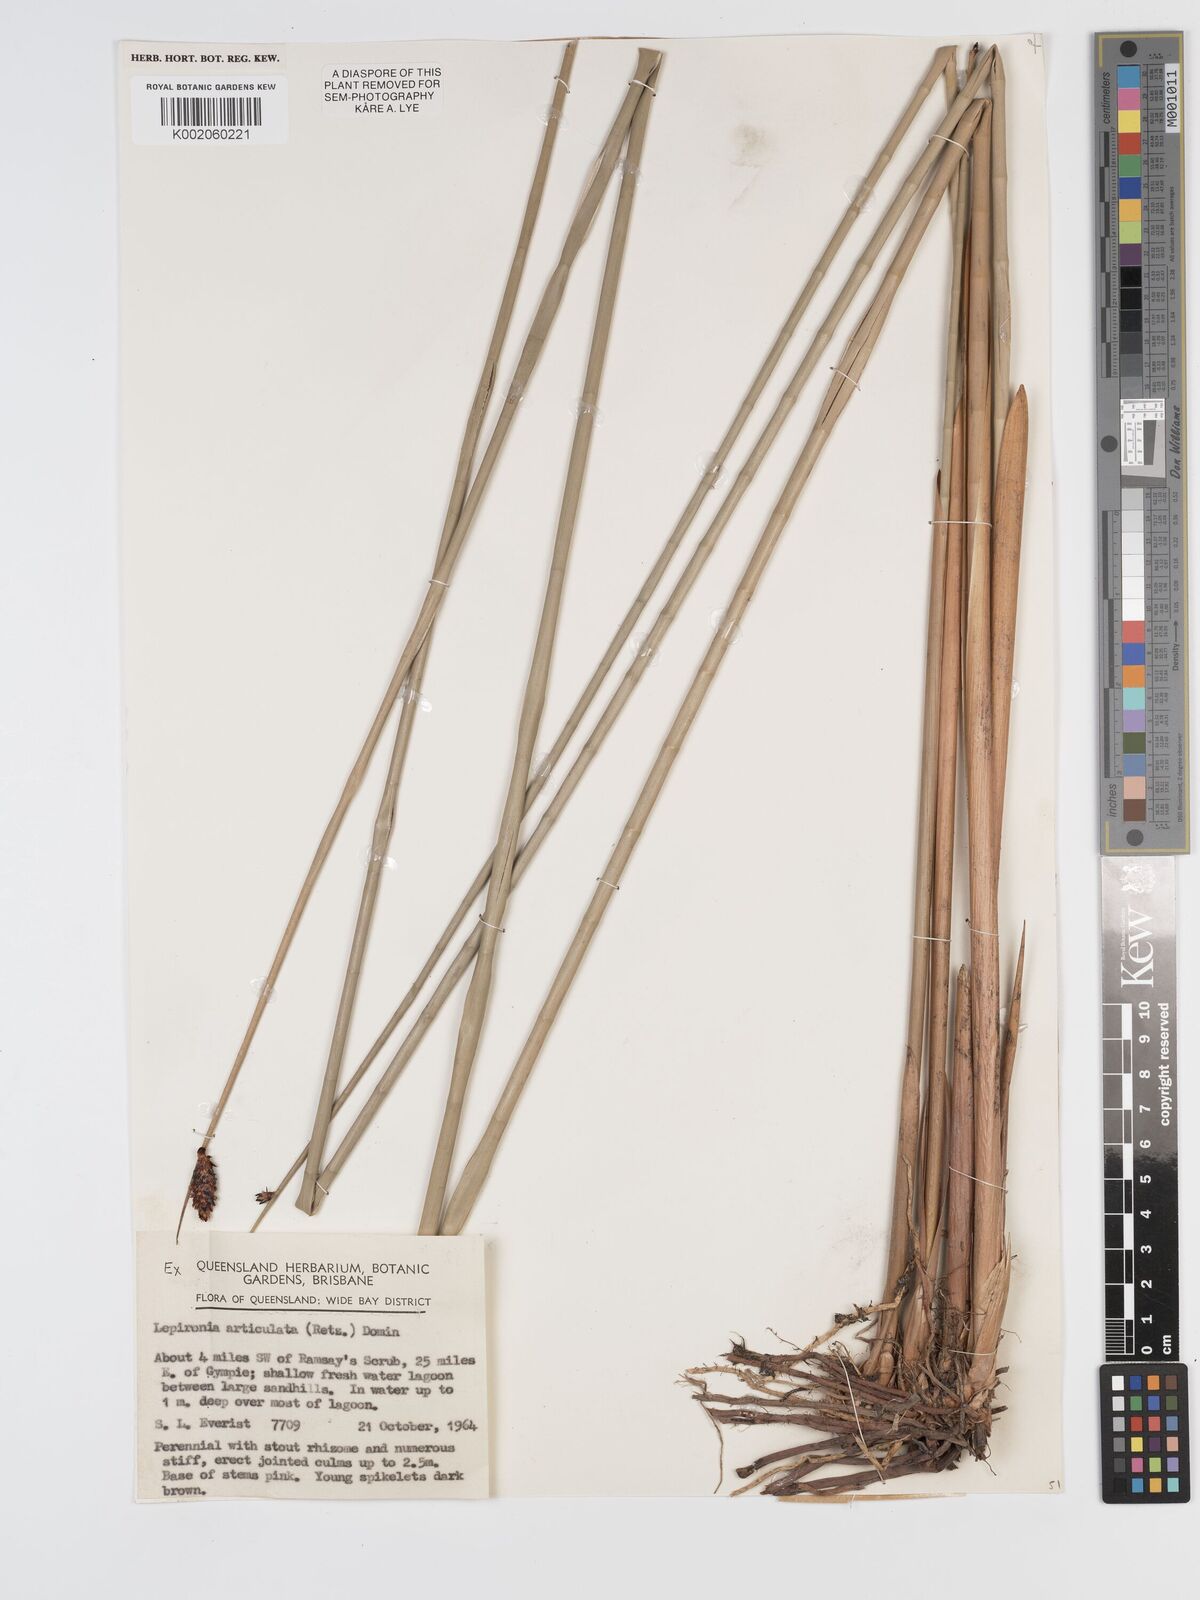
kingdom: Plantae
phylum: Tracheophyta
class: Liliopsida
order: Poales
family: Cyperaceae
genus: Lepironia
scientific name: Lepironia articulata
